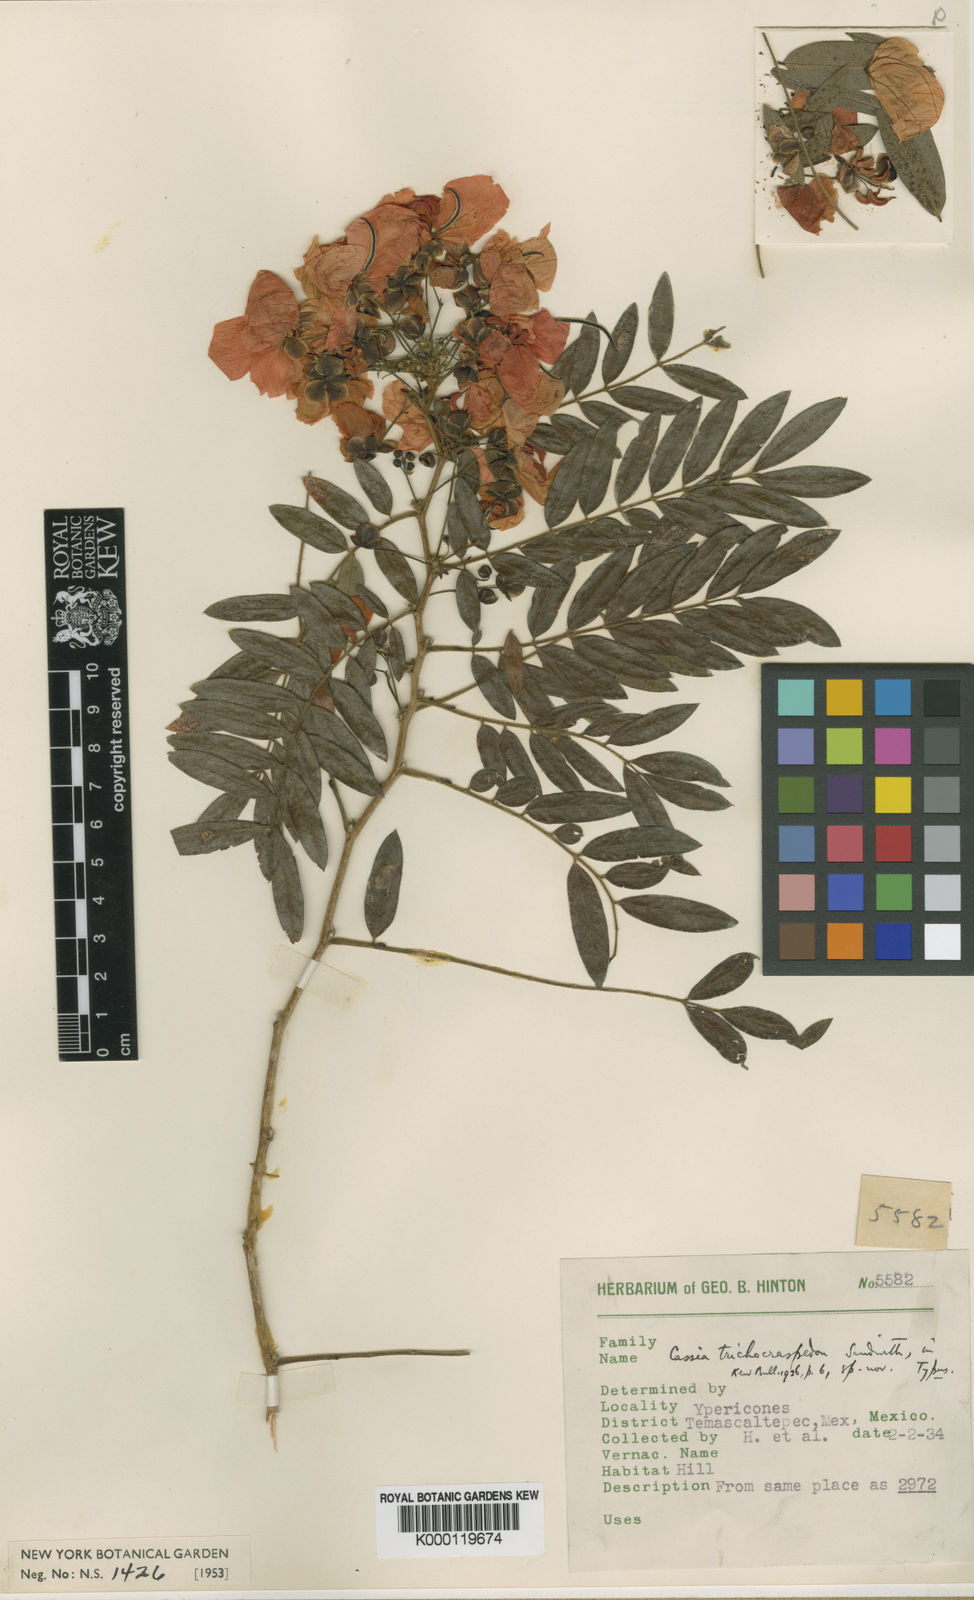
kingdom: Plantae
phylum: Tracheophyta
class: Magnoliopsida
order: Fabales
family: Fabaceae
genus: Senna
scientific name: Senna pallida
